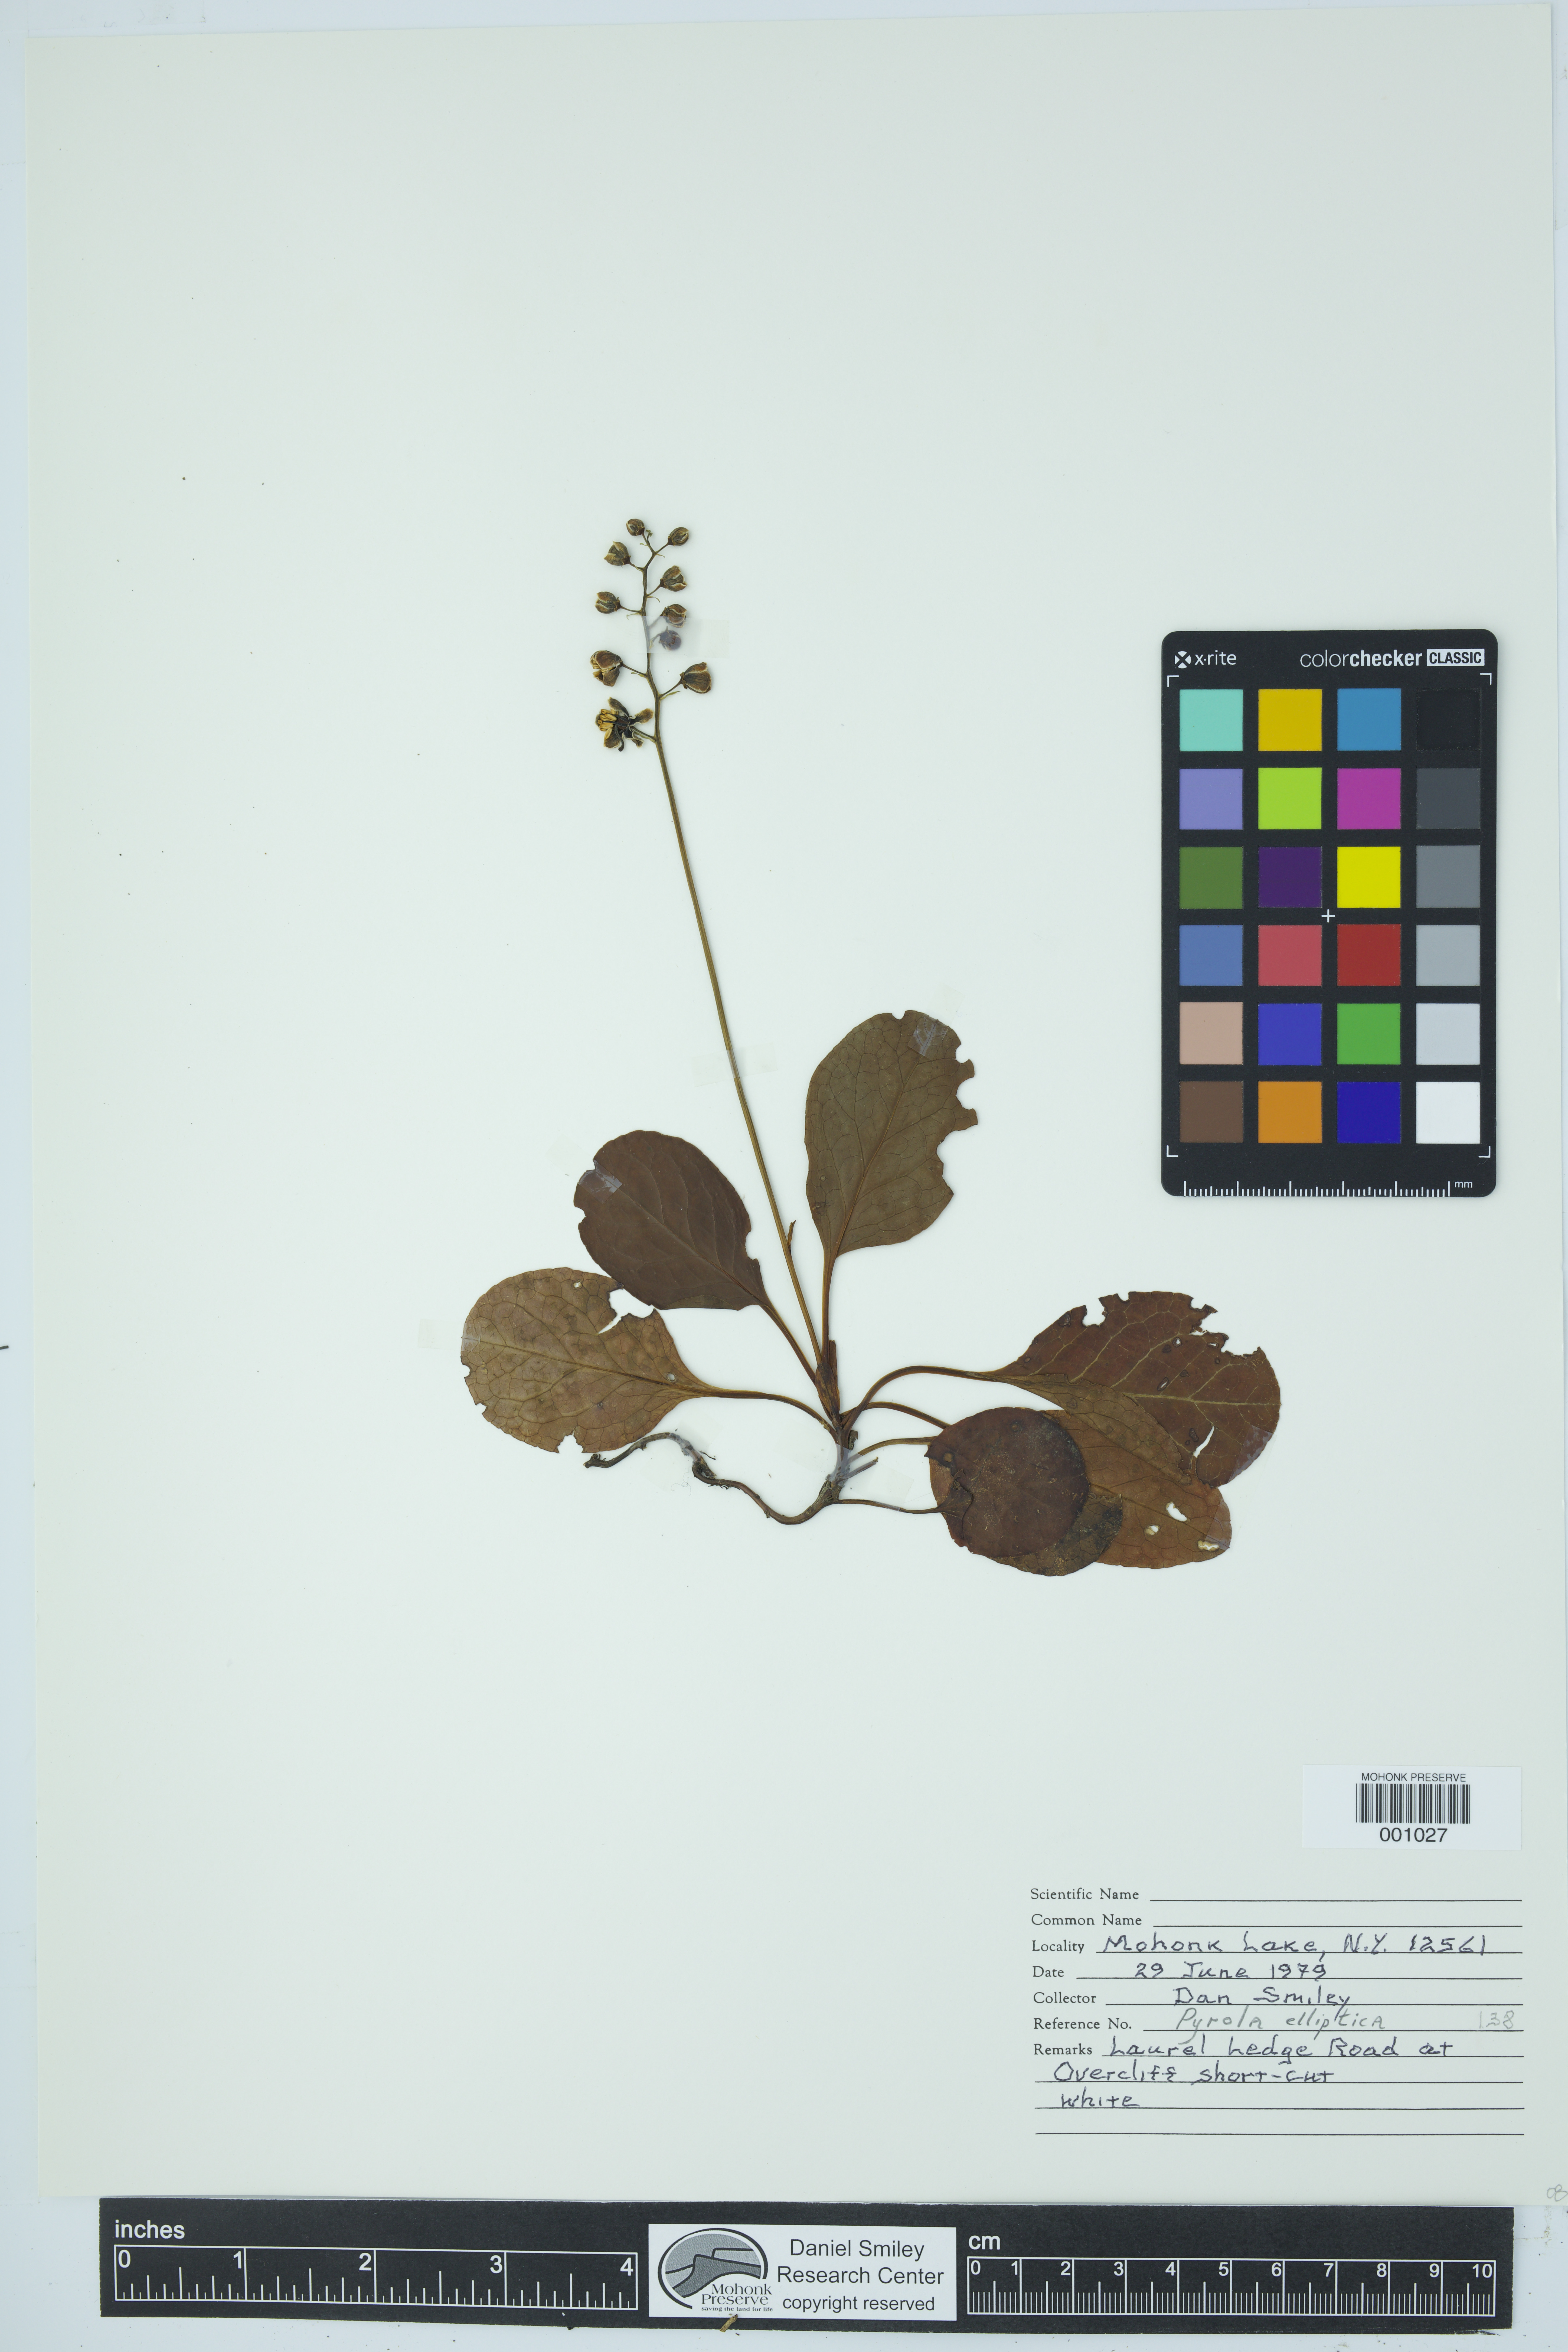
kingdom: Plantae
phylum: Tracheophyta
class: Magnoliopsida
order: Ericales
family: Ericaceae
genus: Pyrola
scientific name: Pyrola elliptica
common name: Shinleaf
